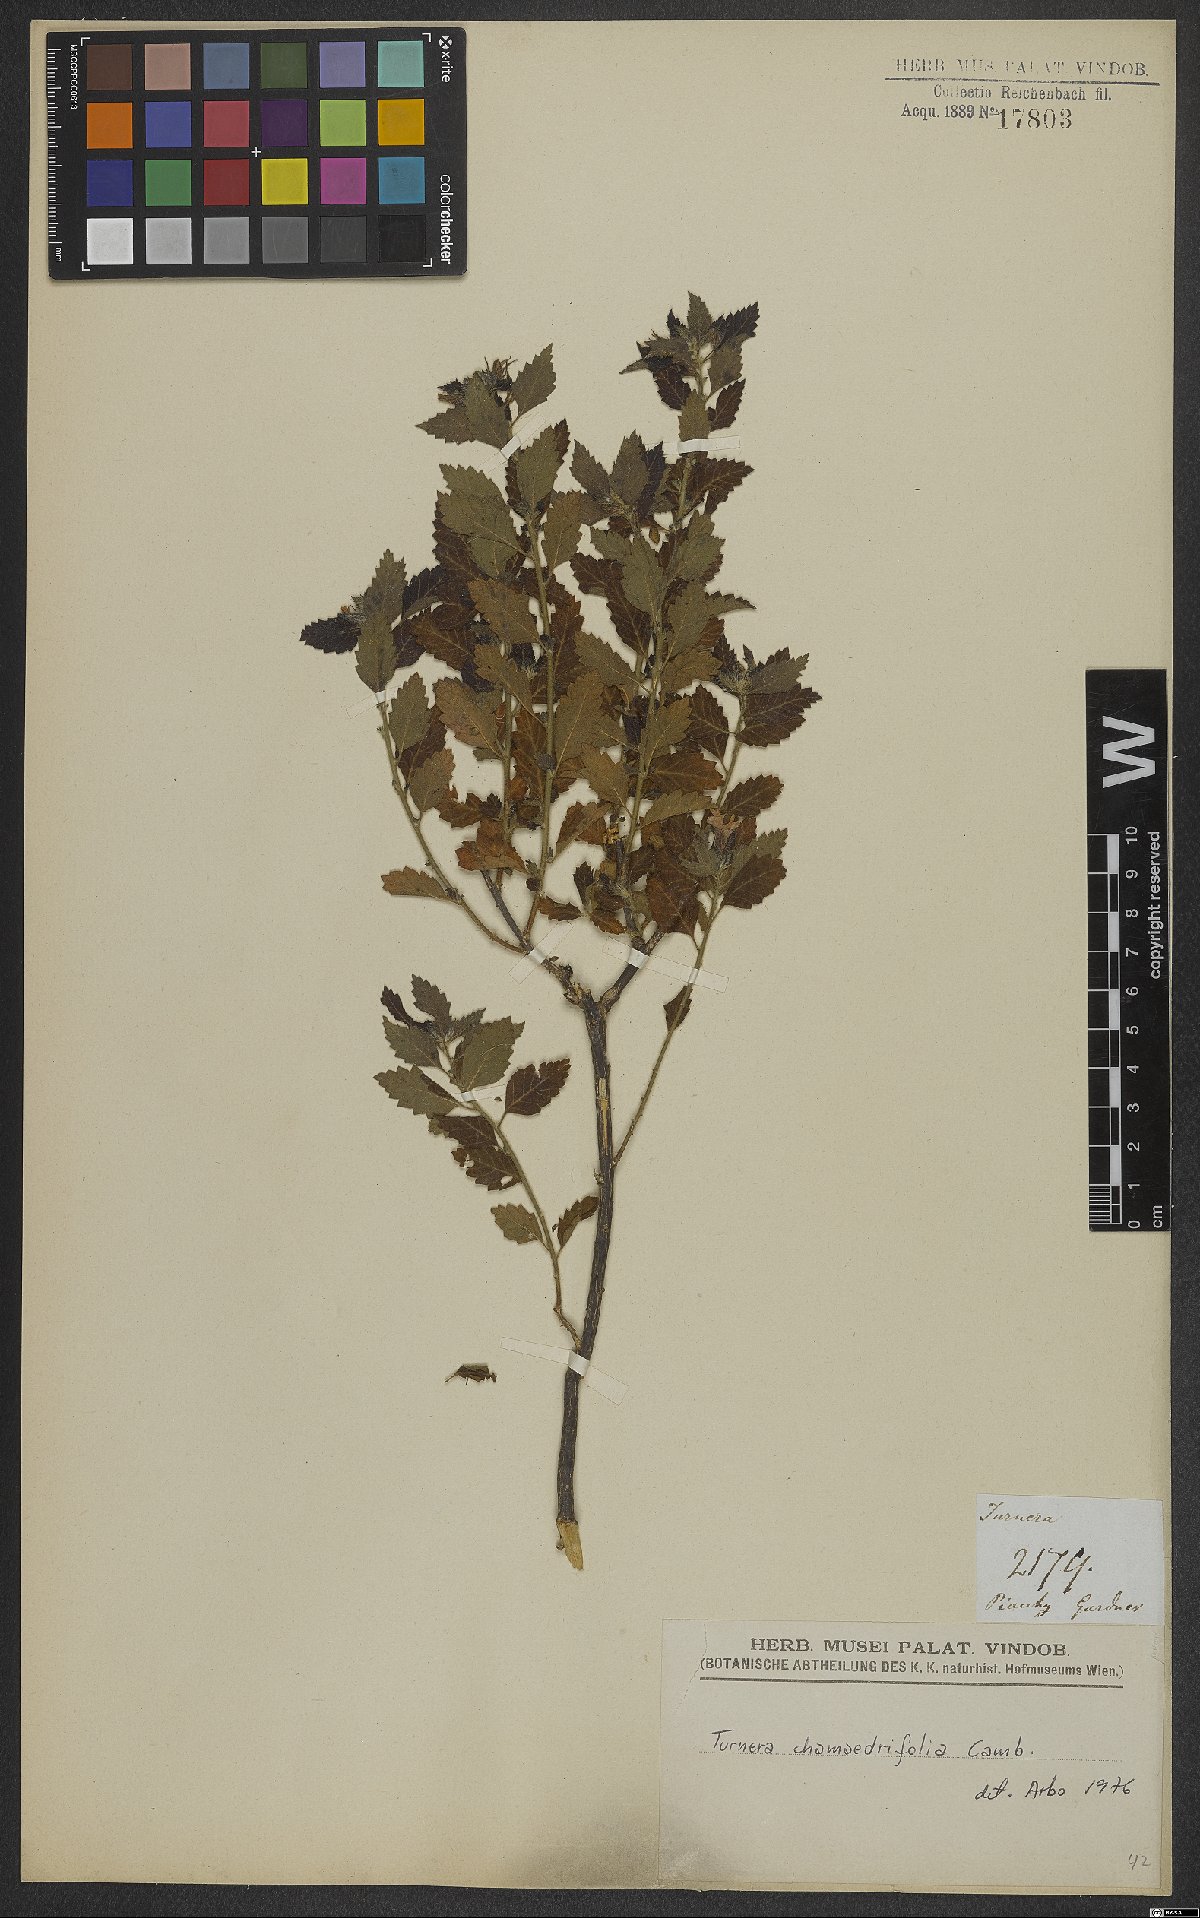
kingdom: Plantae
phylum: Tracheophyta
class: Magnoliopsida
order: Malpighiales
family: Turneraceae
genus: Turnera
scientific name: Turnera chamaedrifolia
